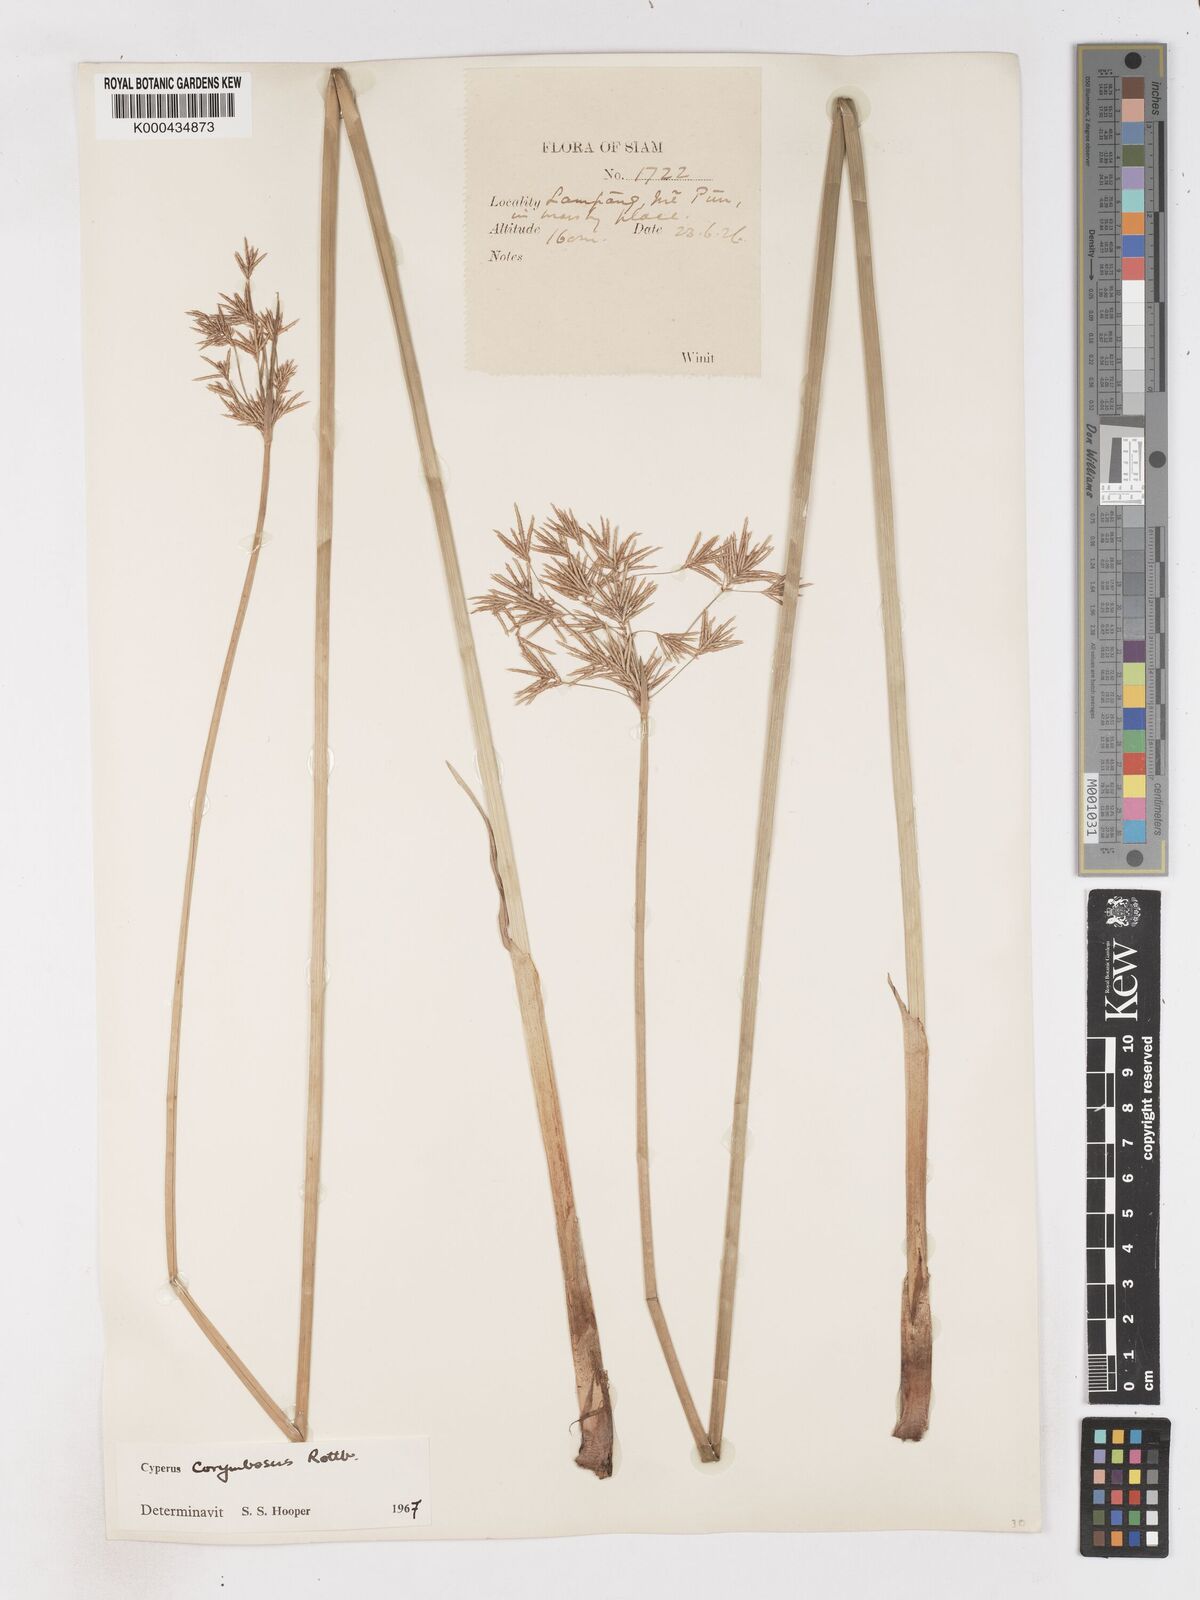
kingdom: Plantae
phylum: Tracheophyta
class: Liliopsida
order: Poales
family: Cyperaceae
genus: Cyperus
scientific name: Cyperus corymbosus
